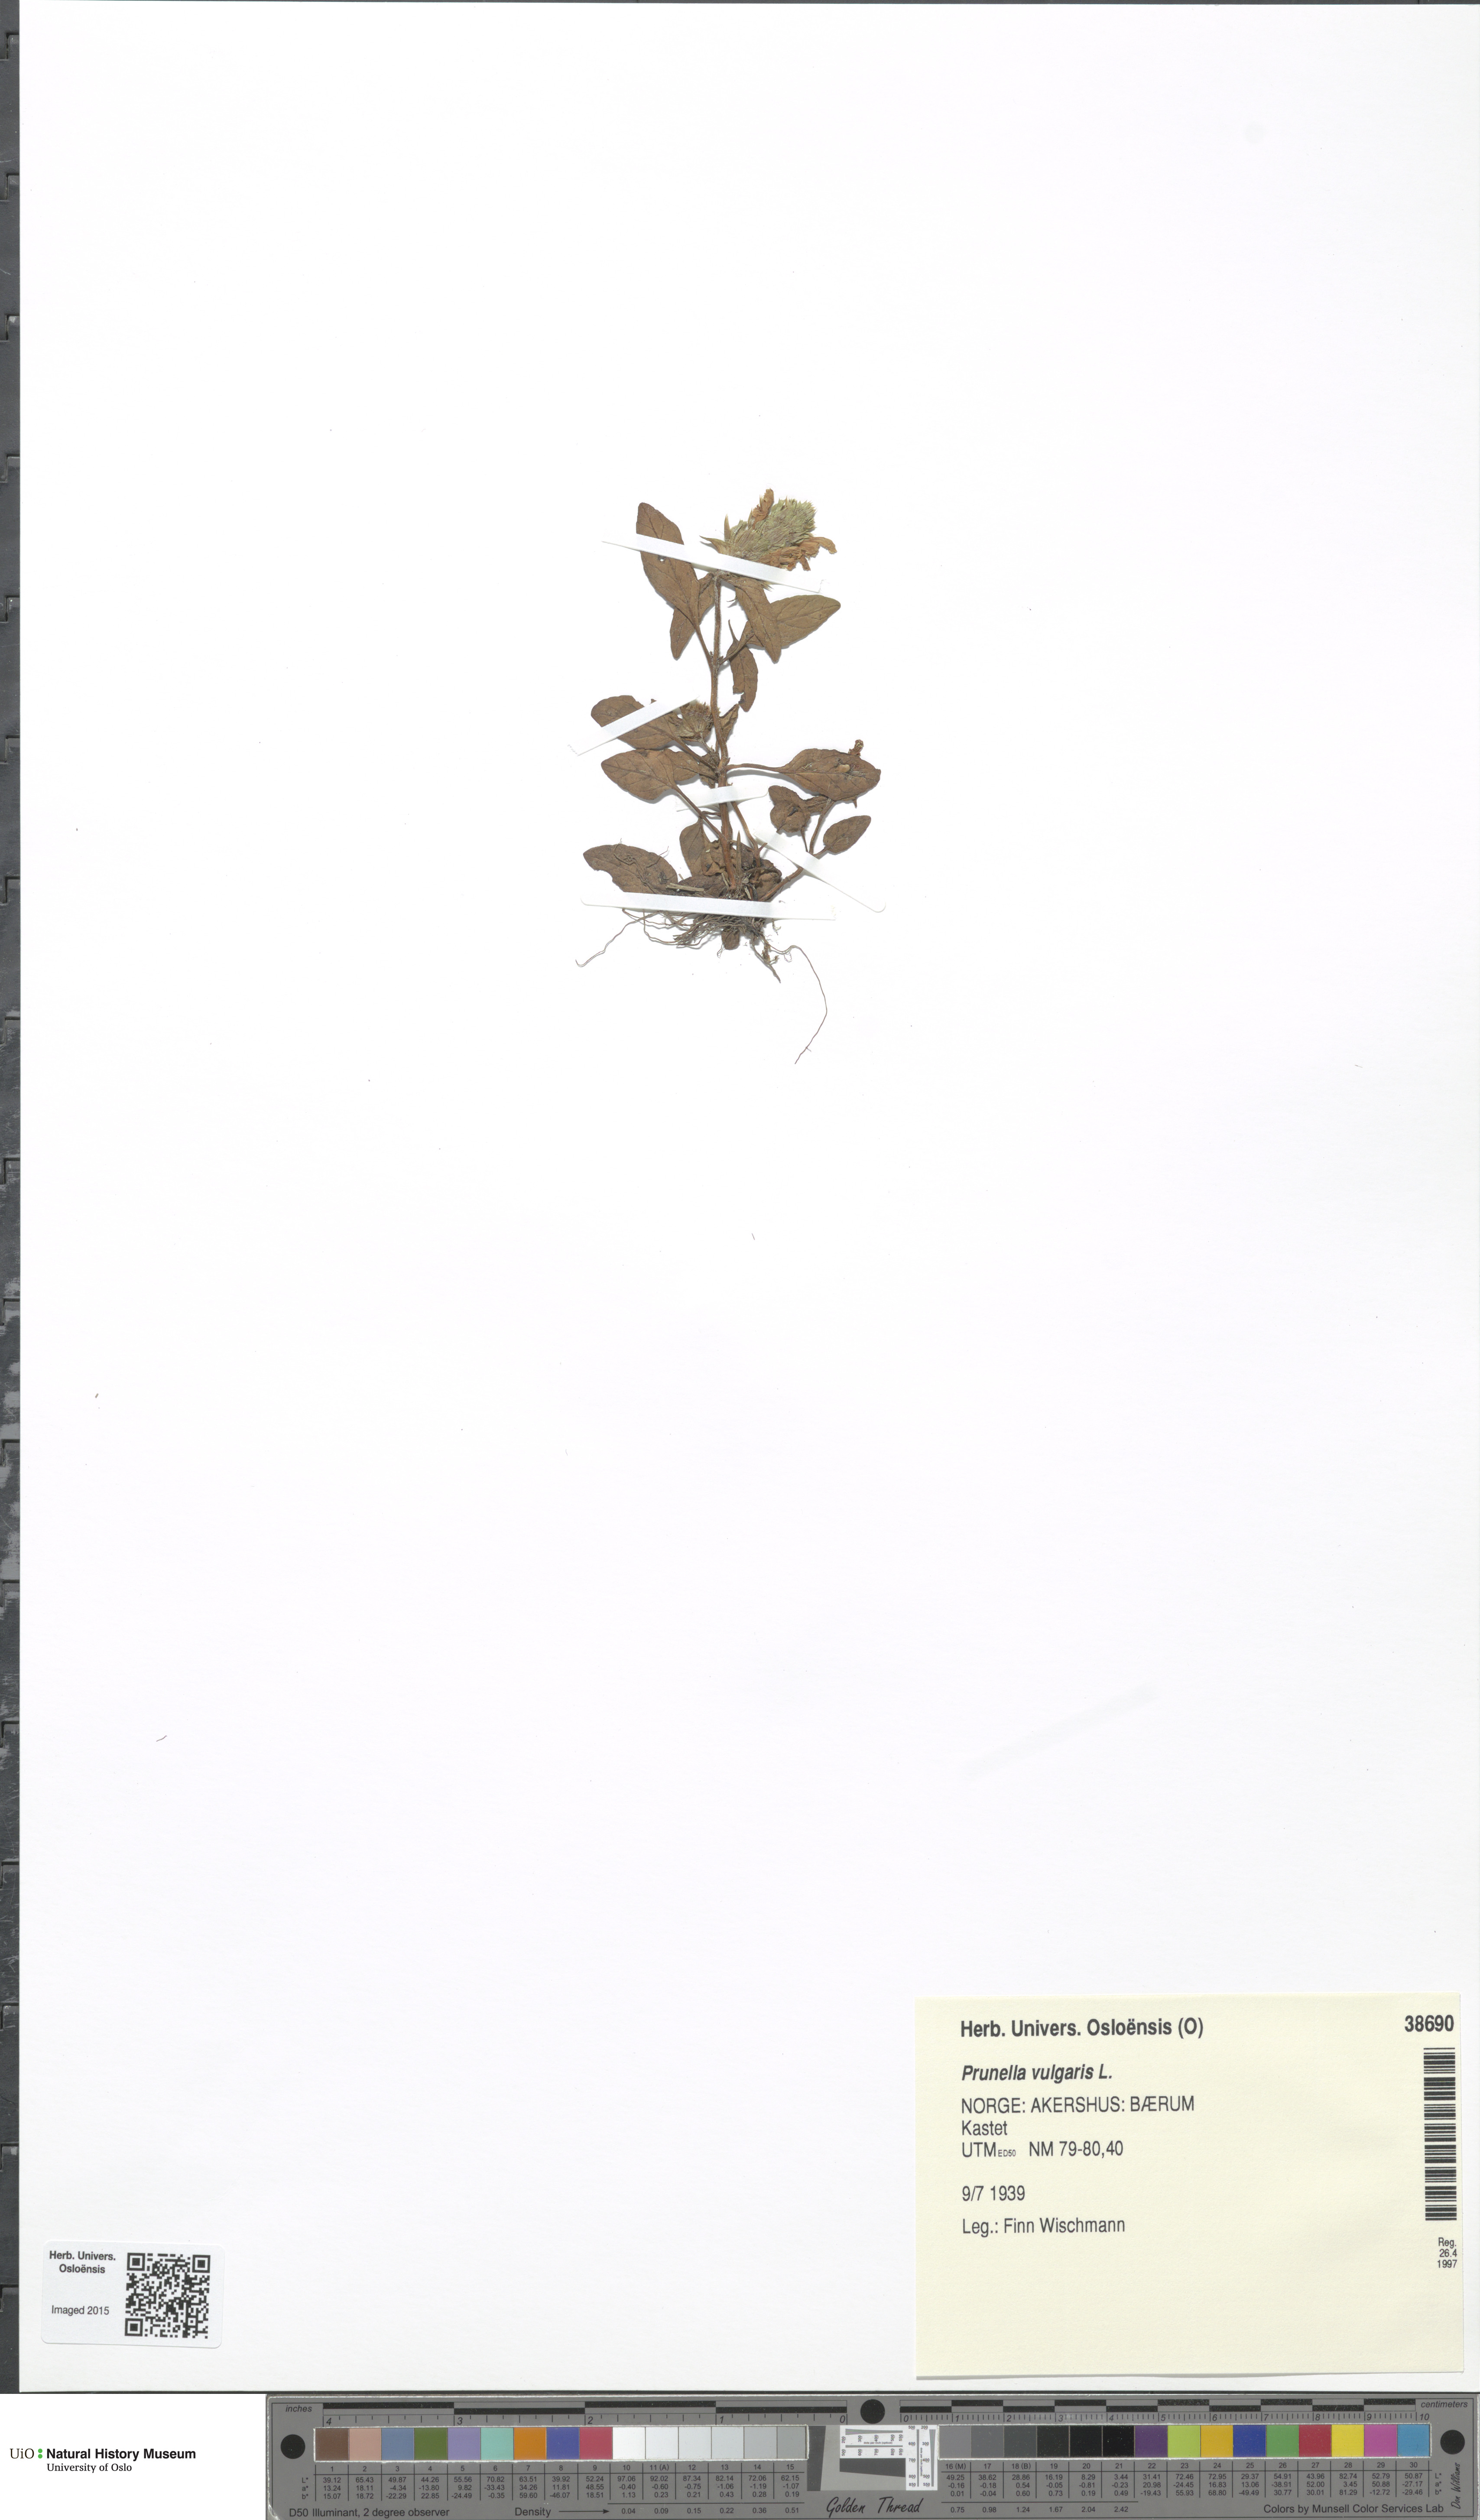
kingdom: Plantae
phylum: Tracheophyta
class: Magnoliopsida
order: Lamiales
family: Lamiaceae
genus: Prunella
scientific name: Prunella vulgaris
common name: Heal-all
